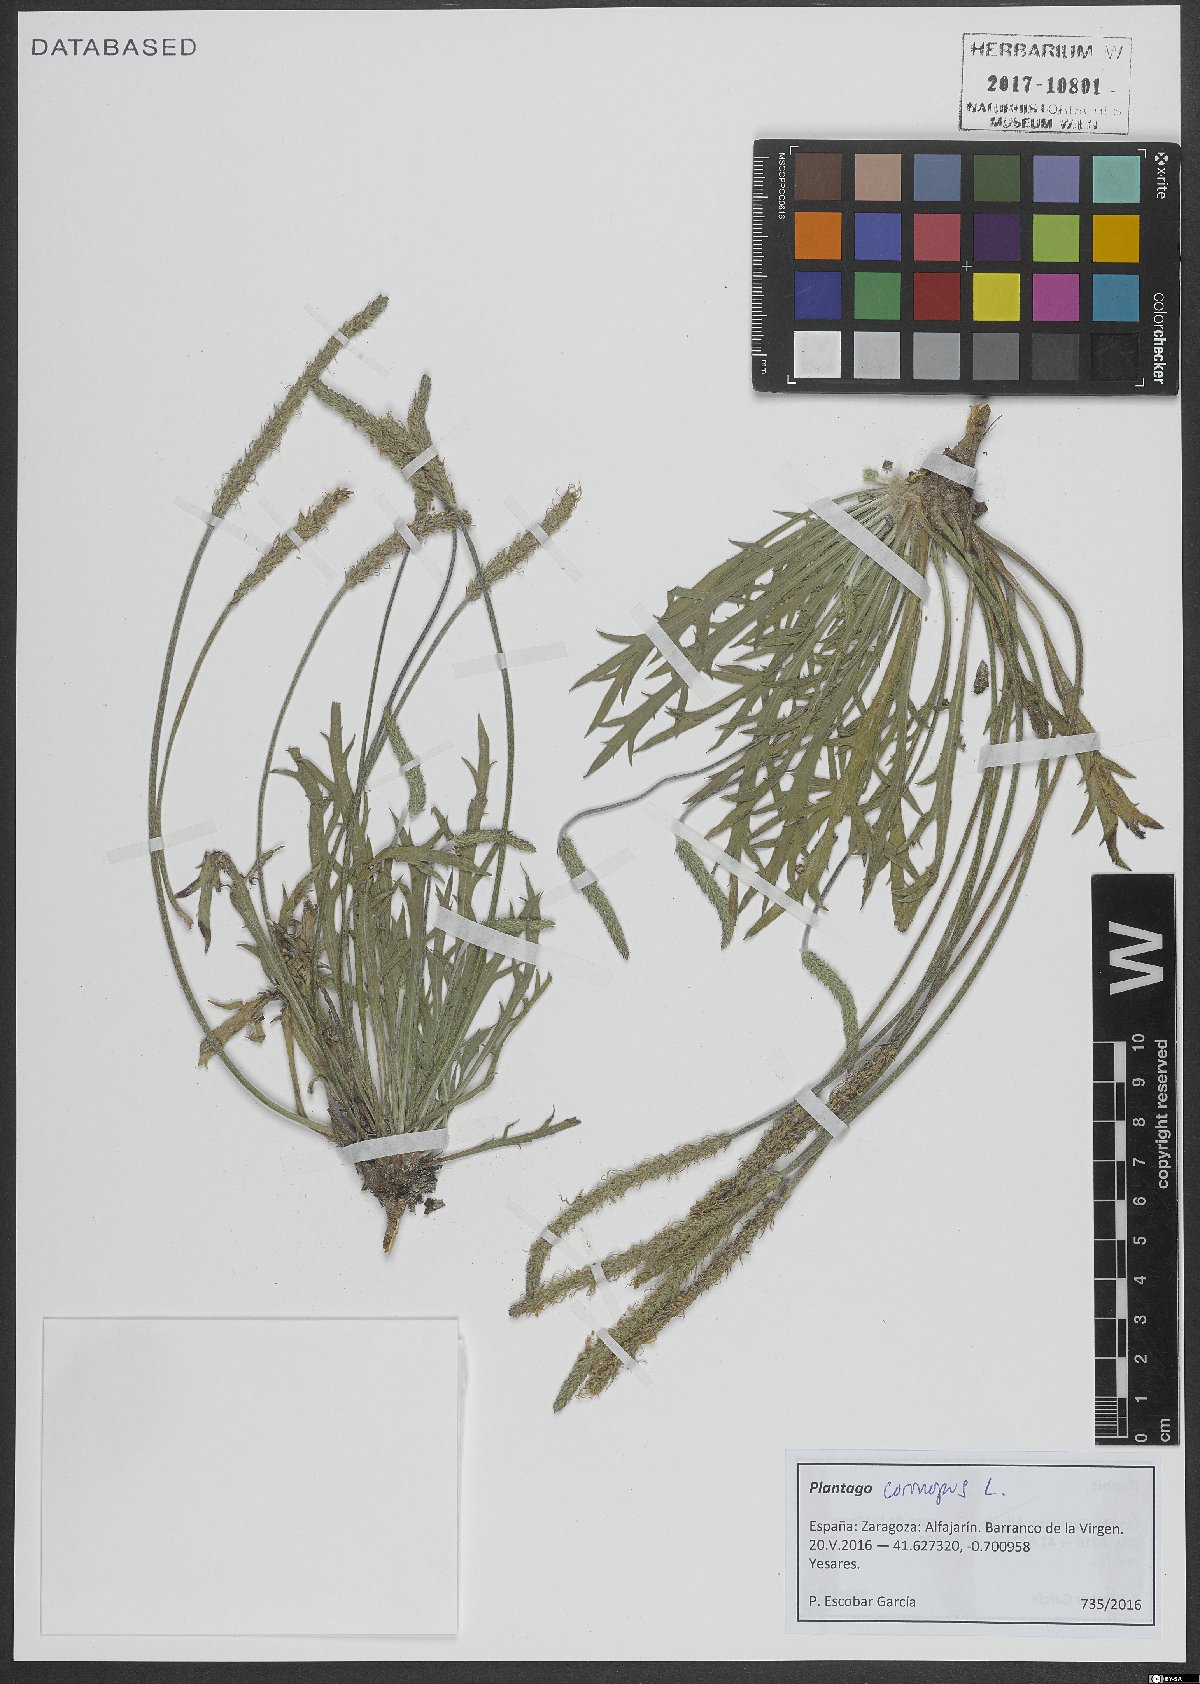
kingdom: Plantae
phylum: Tracheophyta
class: Magnoliopsida
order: Lamiales
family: Plantaginaceae
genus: Plantago
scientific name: Plantago coronopus
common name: Buck's-horn plantain
